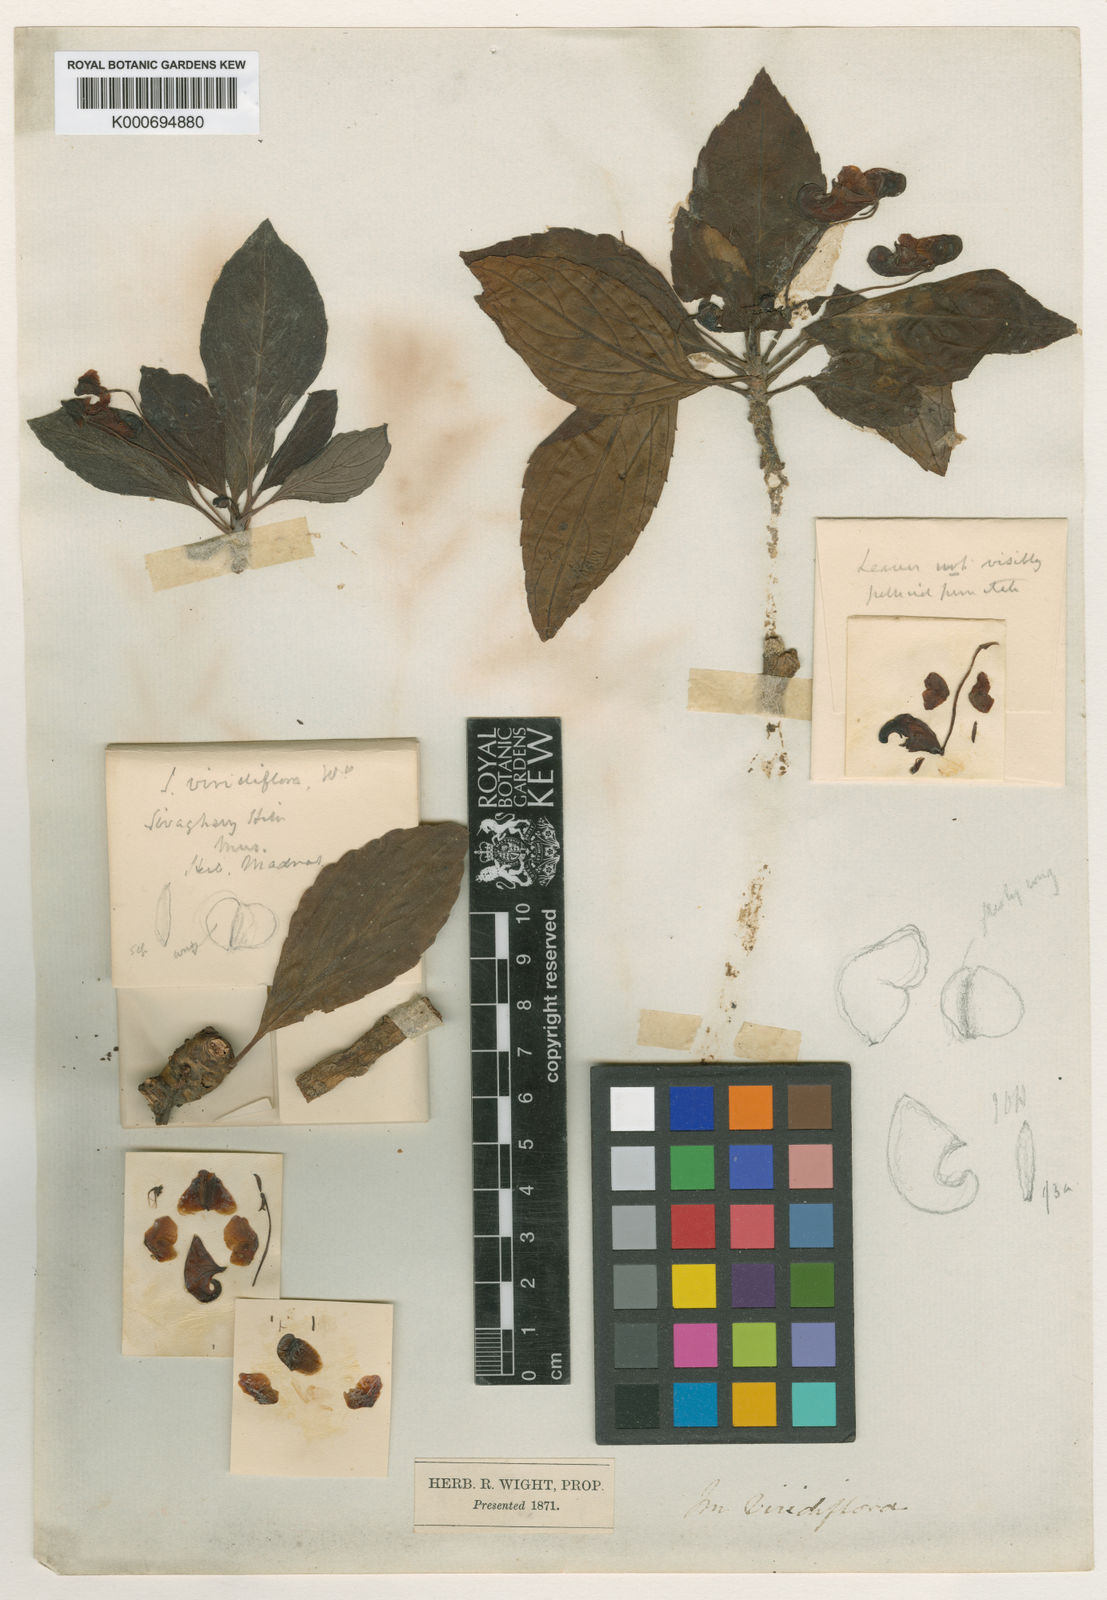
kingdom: Plantae
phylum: Tracheophyta
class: Magnoliopsida
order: Ericales
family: Balsaminaceae
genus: Impatiens
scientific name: Impatiens viridiflora
